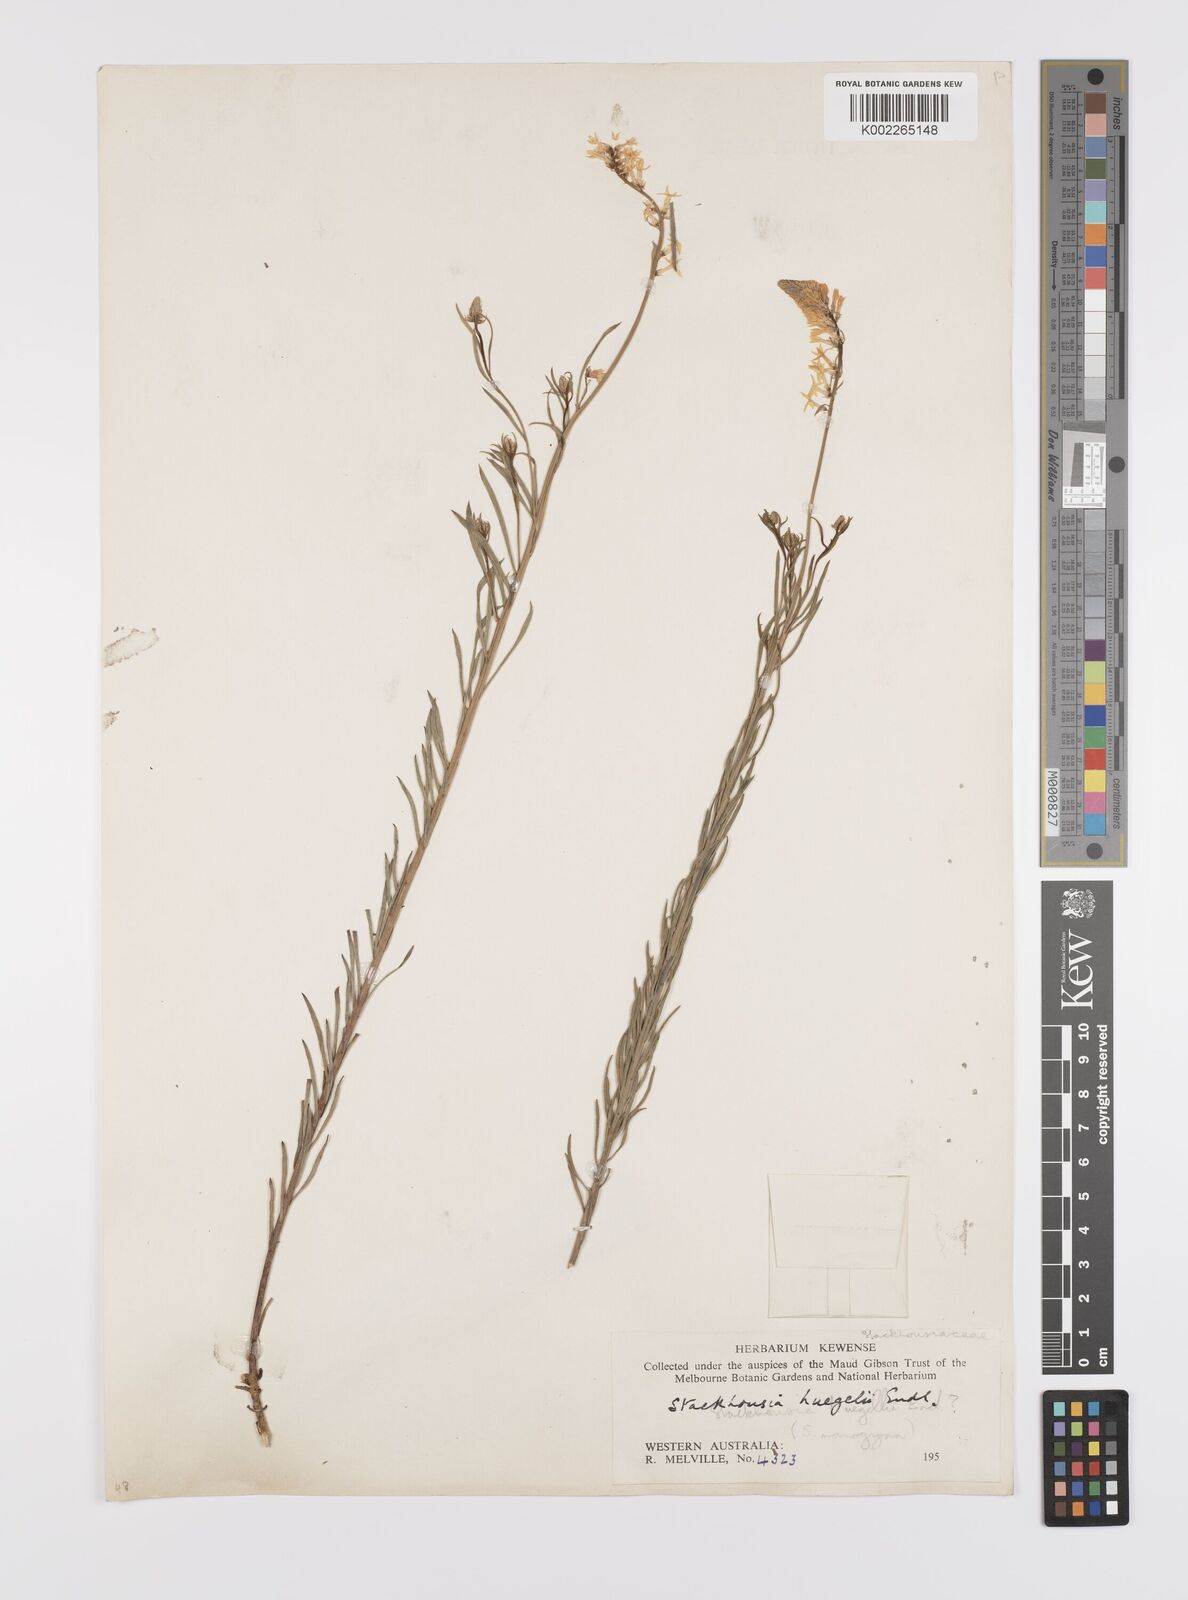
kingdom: Plantae
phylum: Tracheophyta
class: Magnoliopsida
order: Celastrales
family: Celastraceae
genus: Stackhousia
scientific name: Stackhousia monogyna
